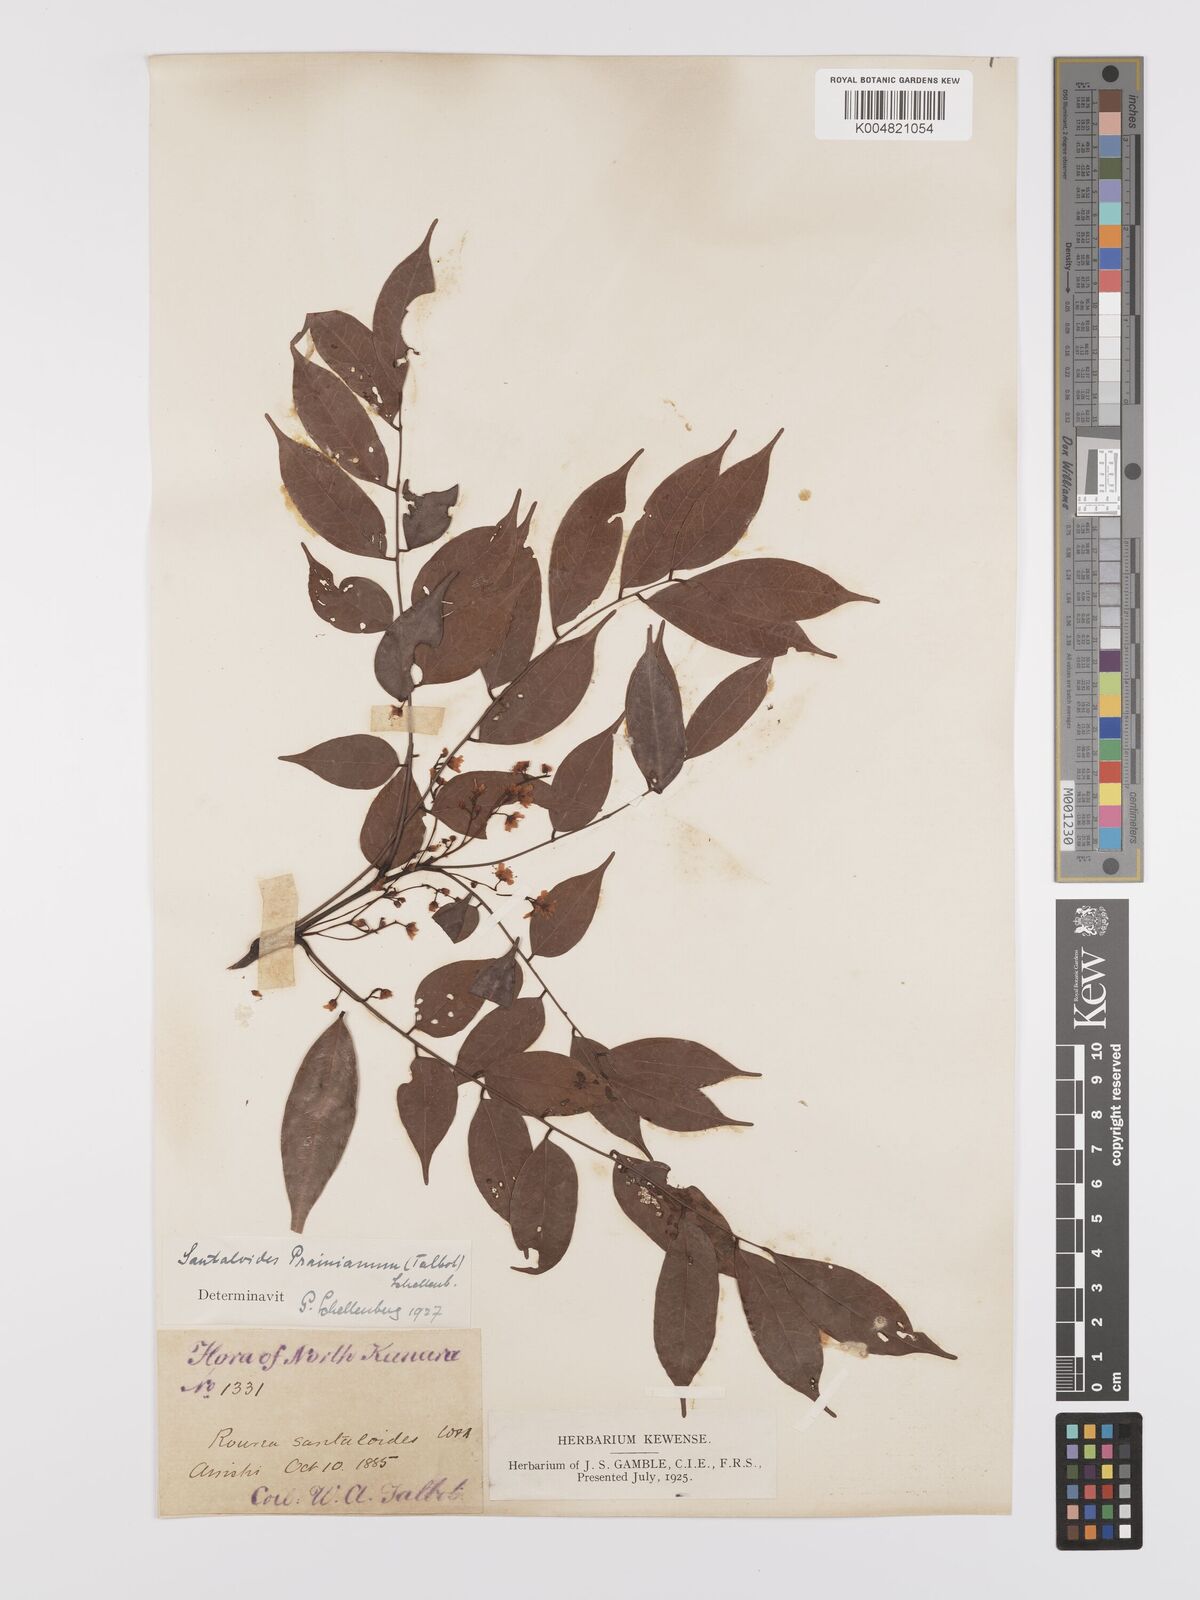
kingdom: Plantae
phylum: Tracheophyta
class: Magnoliopsida
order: Oxalidales
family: Connaraceae
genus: Rourea
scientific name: Rourea prainiana
